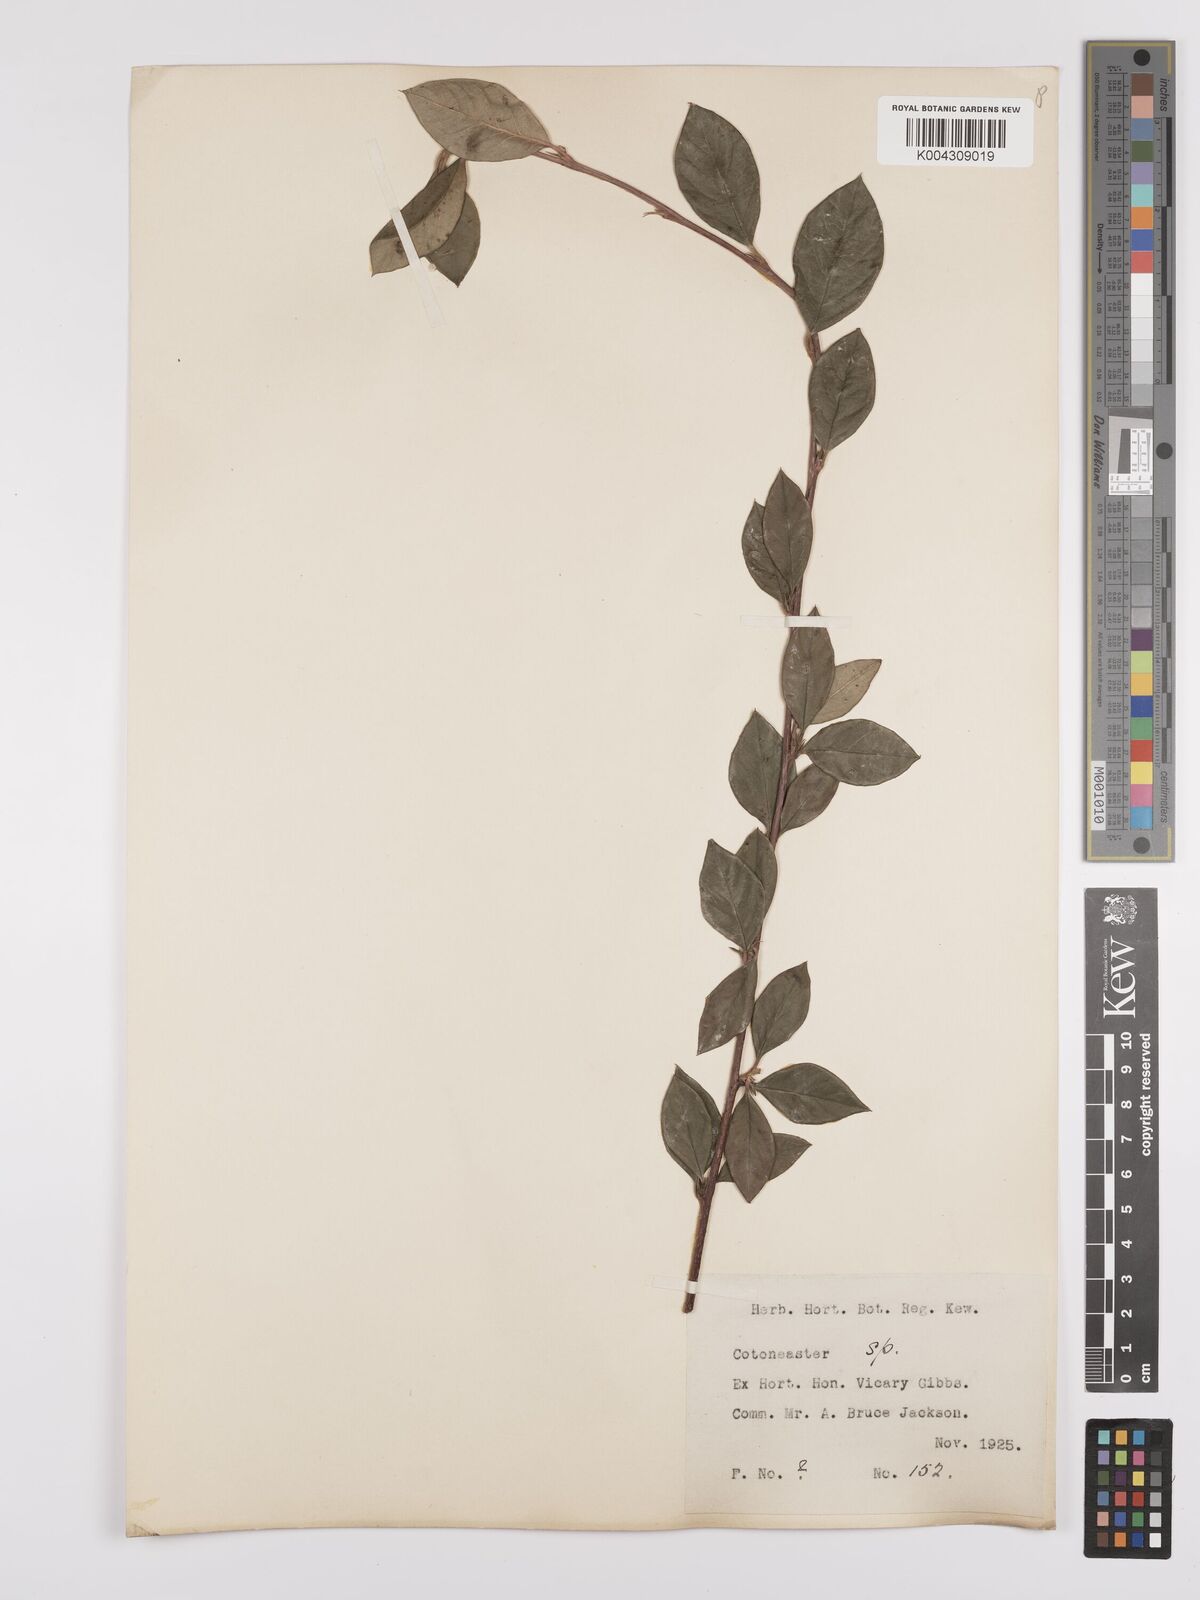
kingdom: Plantae
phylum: Tracheophyta
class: Magnoliopsida
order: Rosales
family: Rosaceae
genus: Cotoneaster
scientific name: Cotoneaster
